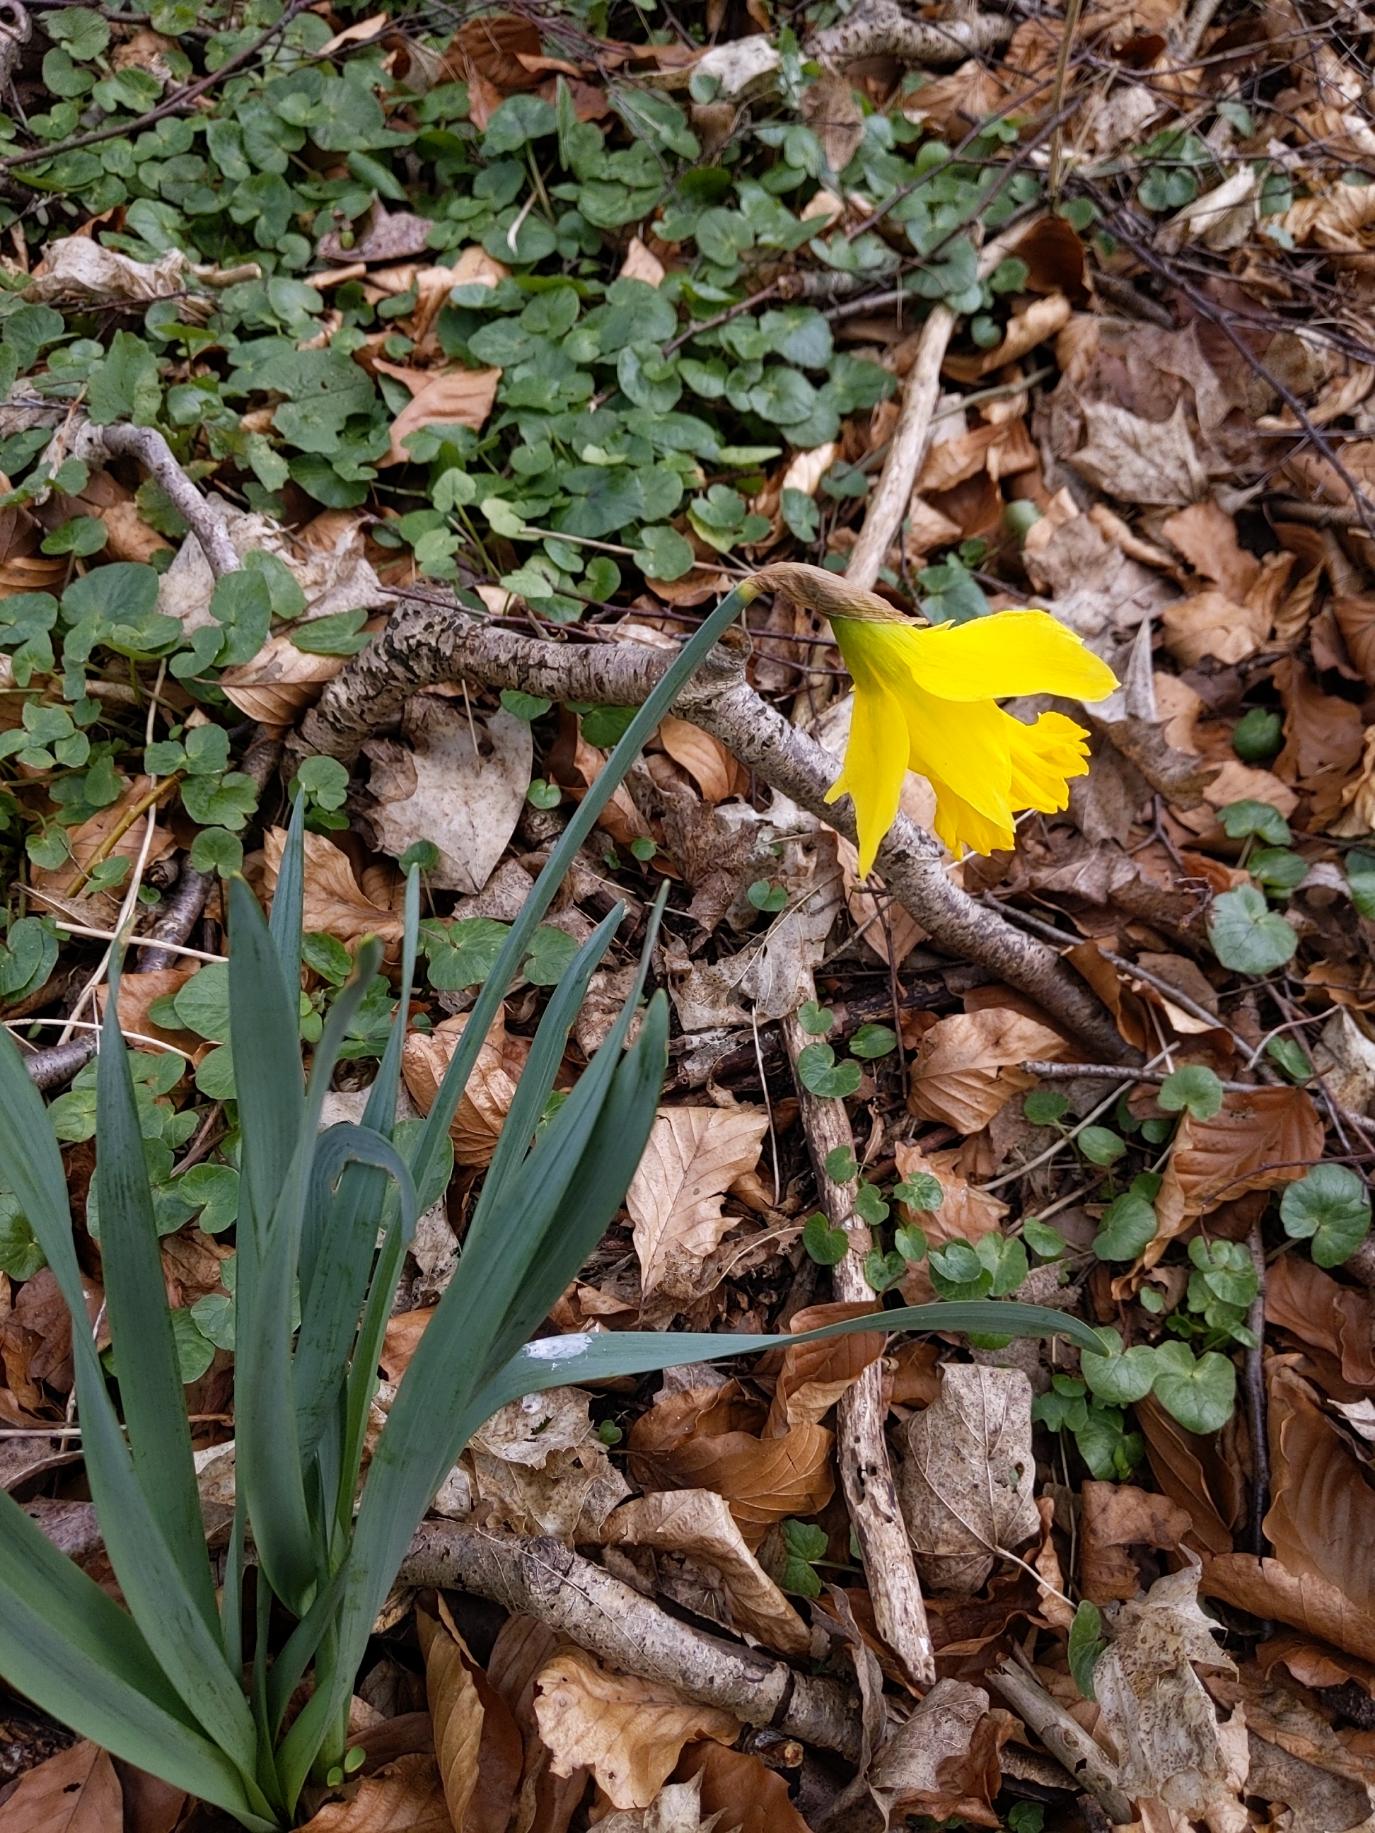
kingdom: Plantae
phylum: Tracheophyta
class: Liliopsida
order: Asparagales
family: Amaryllidaceae
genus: Narcissus
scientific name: Narcissus pseudonarcissus
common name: Påskelilje
